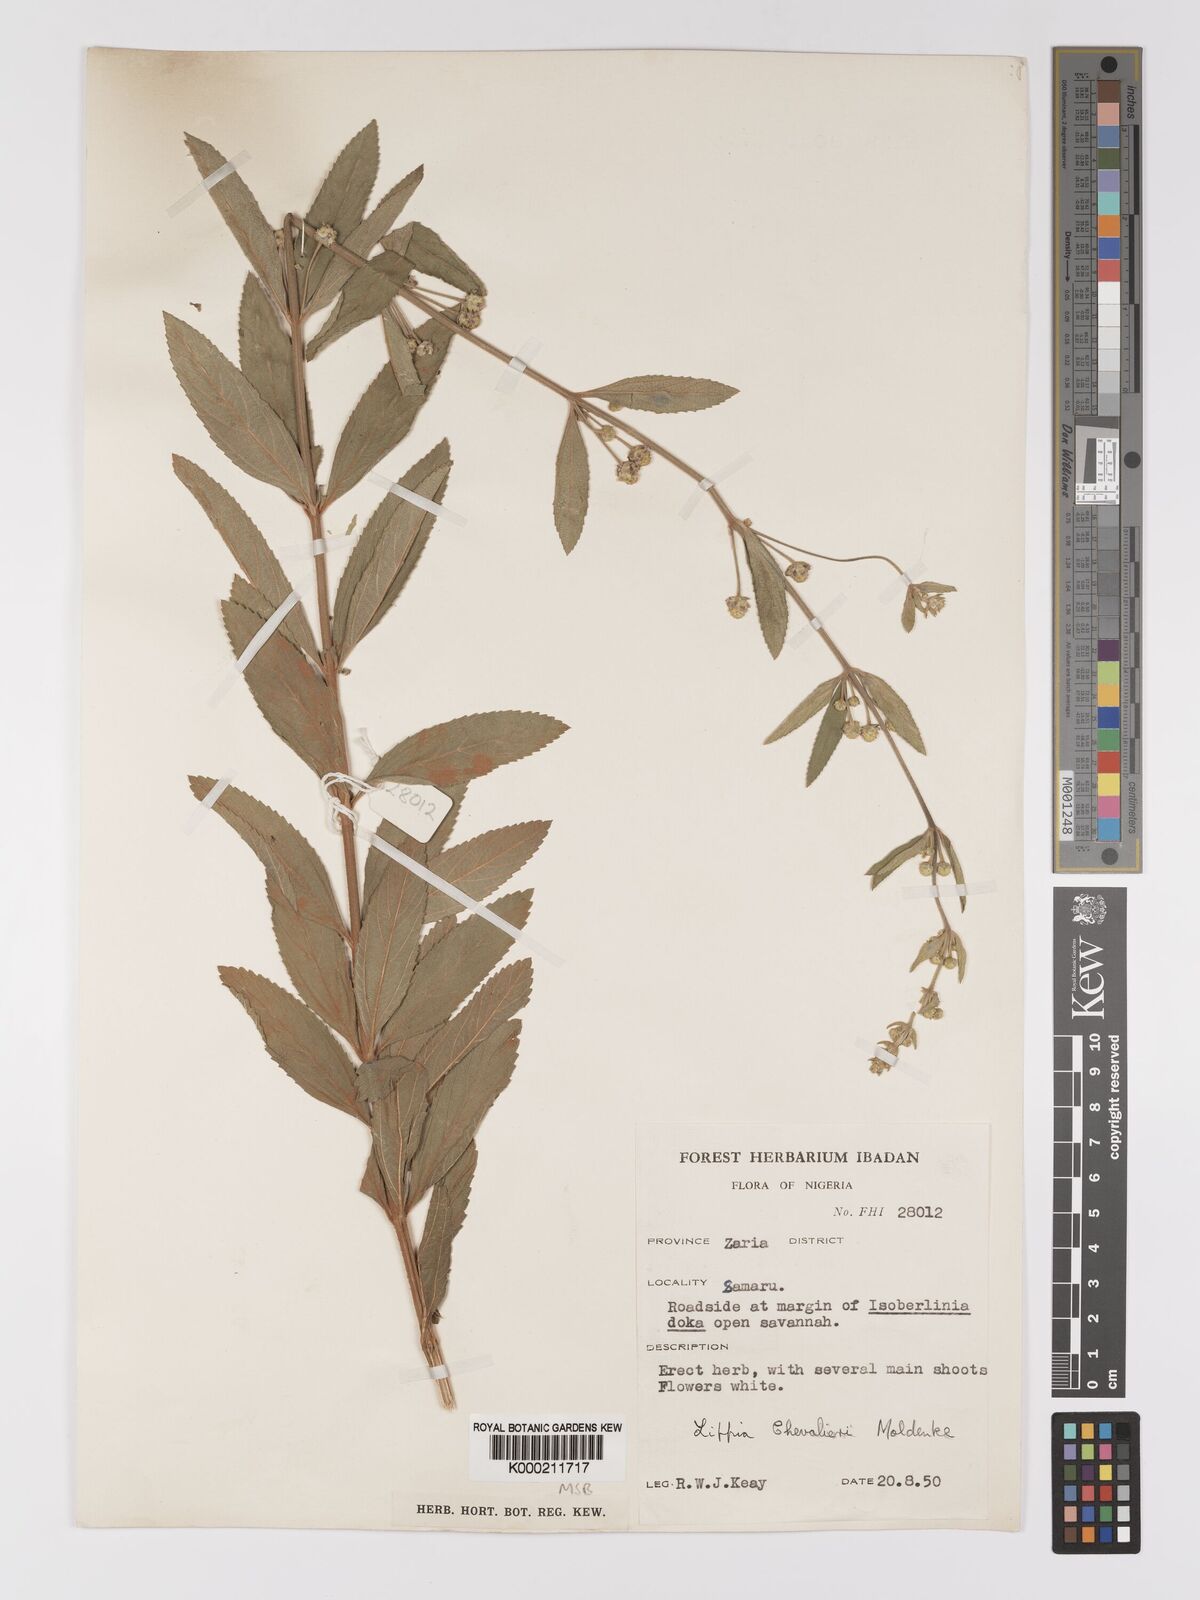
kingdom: Plantae
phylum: Tracheophyta
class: Magnoliopsida
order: Lamiales
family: Verbenaceae
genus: Lippia
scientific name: Lippia chevalieri
